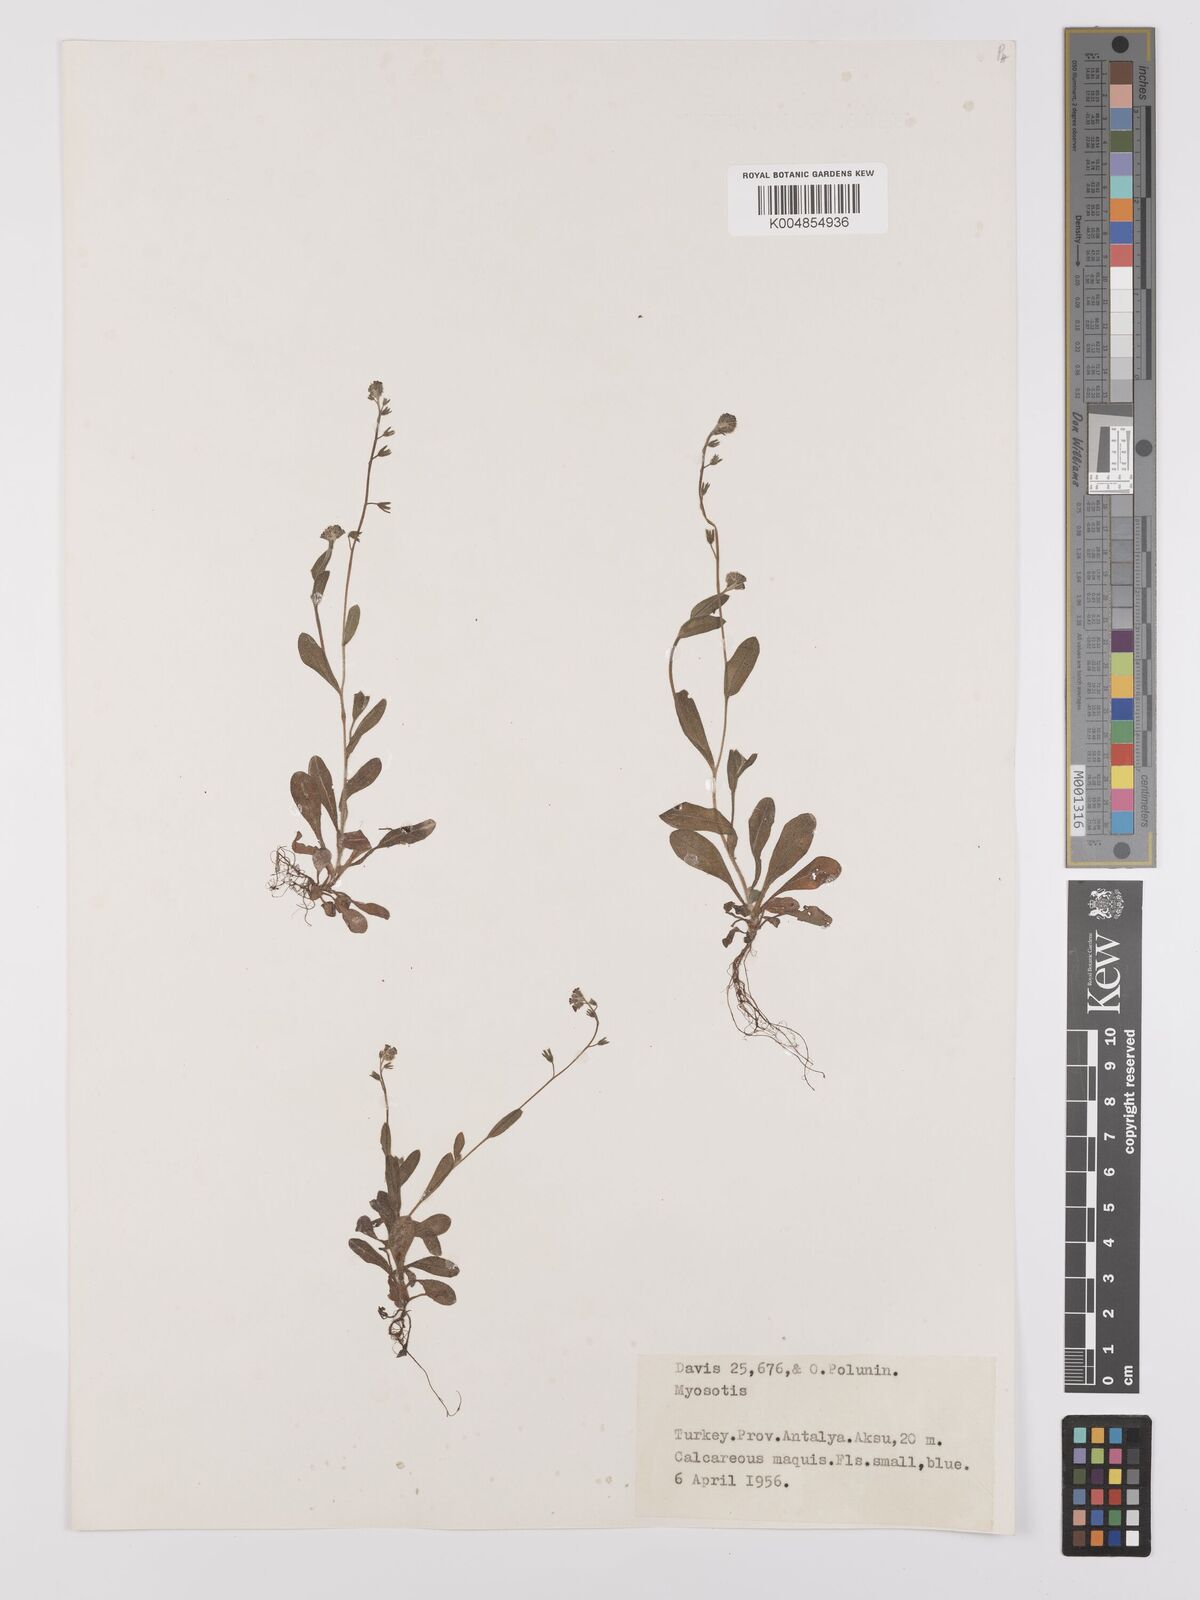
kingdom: Plantae
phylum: Tracheophyta
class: Magnoliopsida
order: Boraginales
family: Boraginaceae
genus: Myosotis
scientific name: Myosotis
